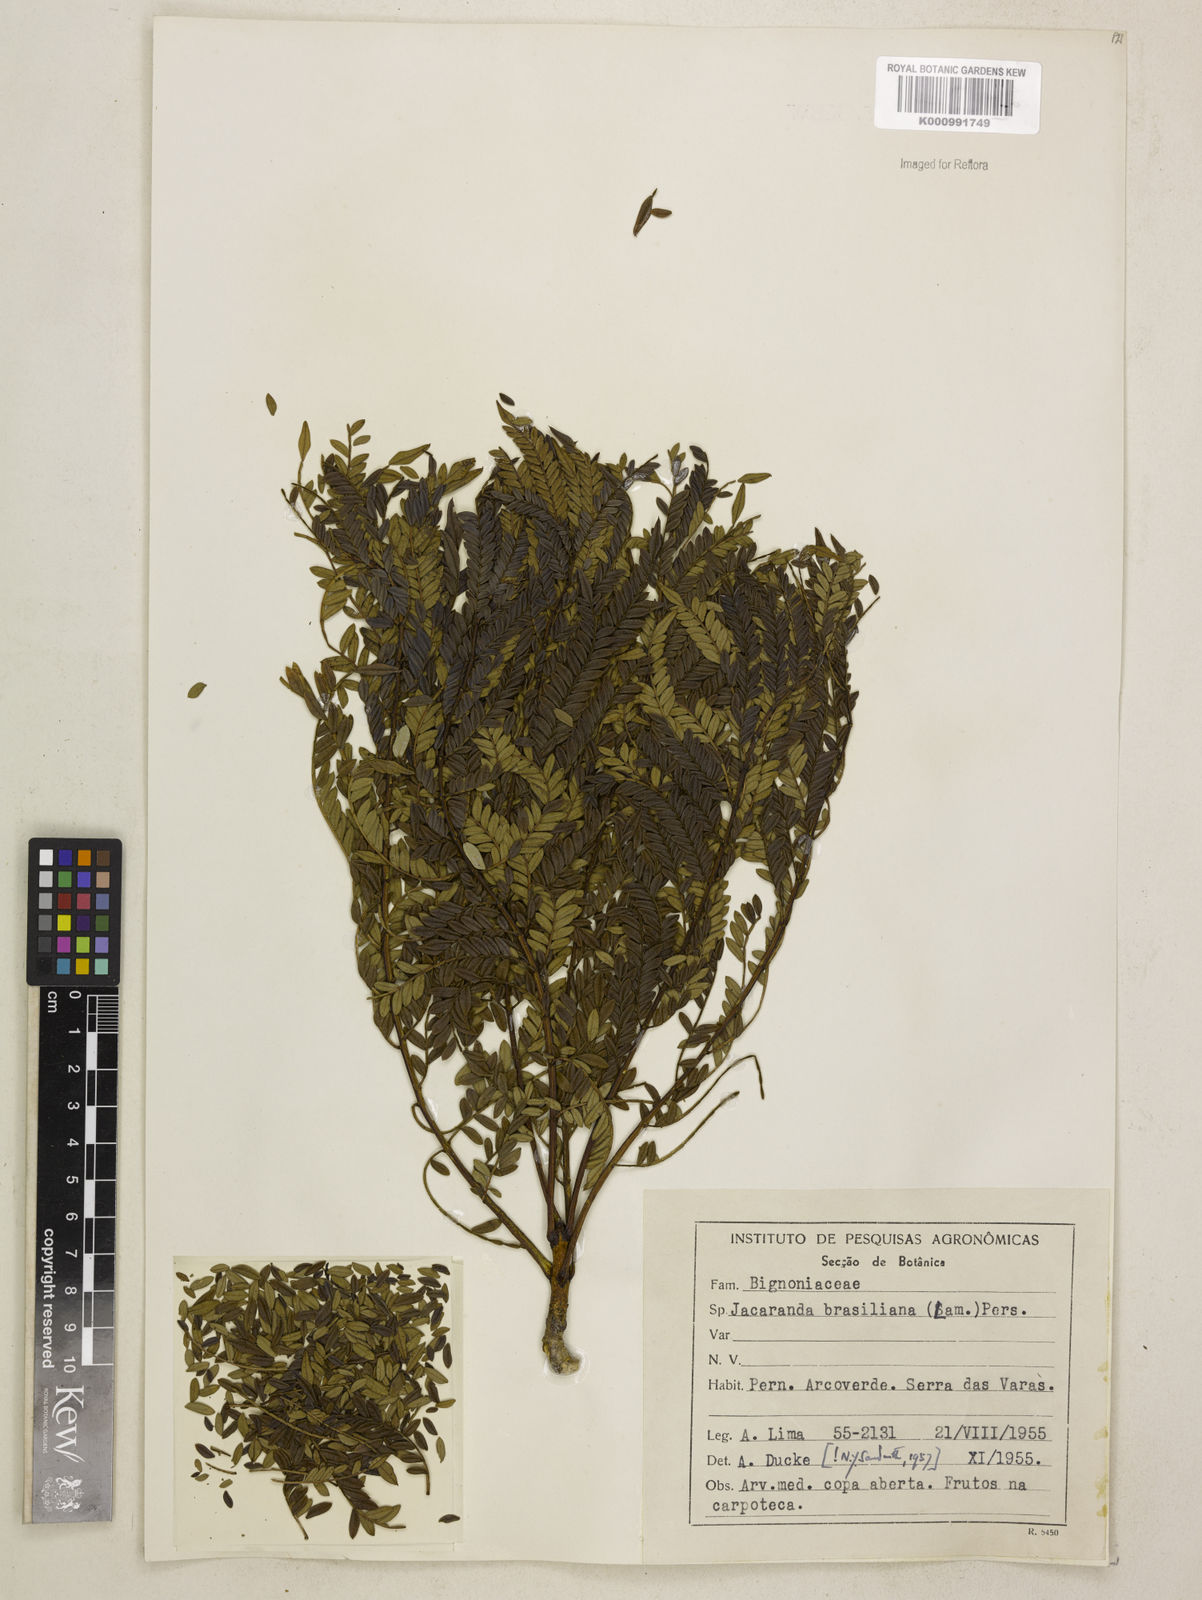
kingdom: Plantae
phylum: Tracheophyta
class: Magnoliopsida
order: Lamiales
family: Bignoniaceae
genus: Jacaranda
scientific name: Jacaranda brasiliana
